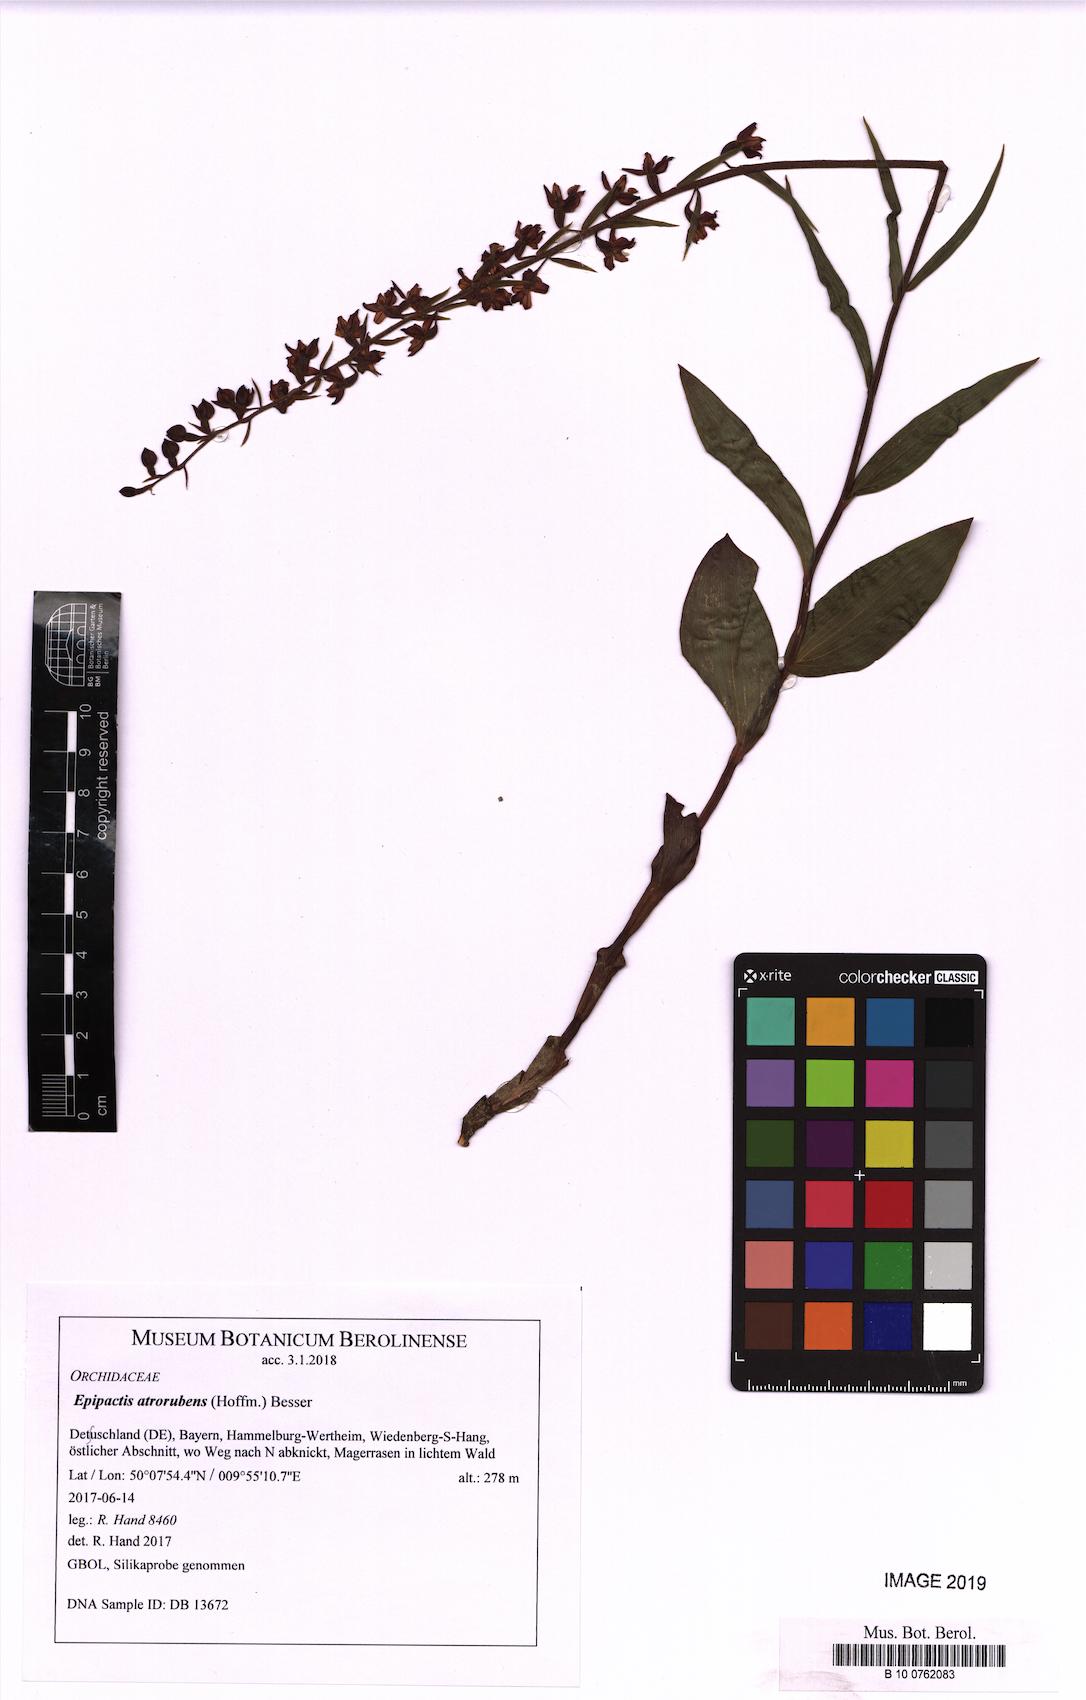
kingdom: Plantae
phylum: Tracheophyta
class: Liliopsida
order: Asparagales
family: Orchidaceae
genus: Epipactis
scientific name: Epipactis atrorubens
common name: Dark-red helleborine
